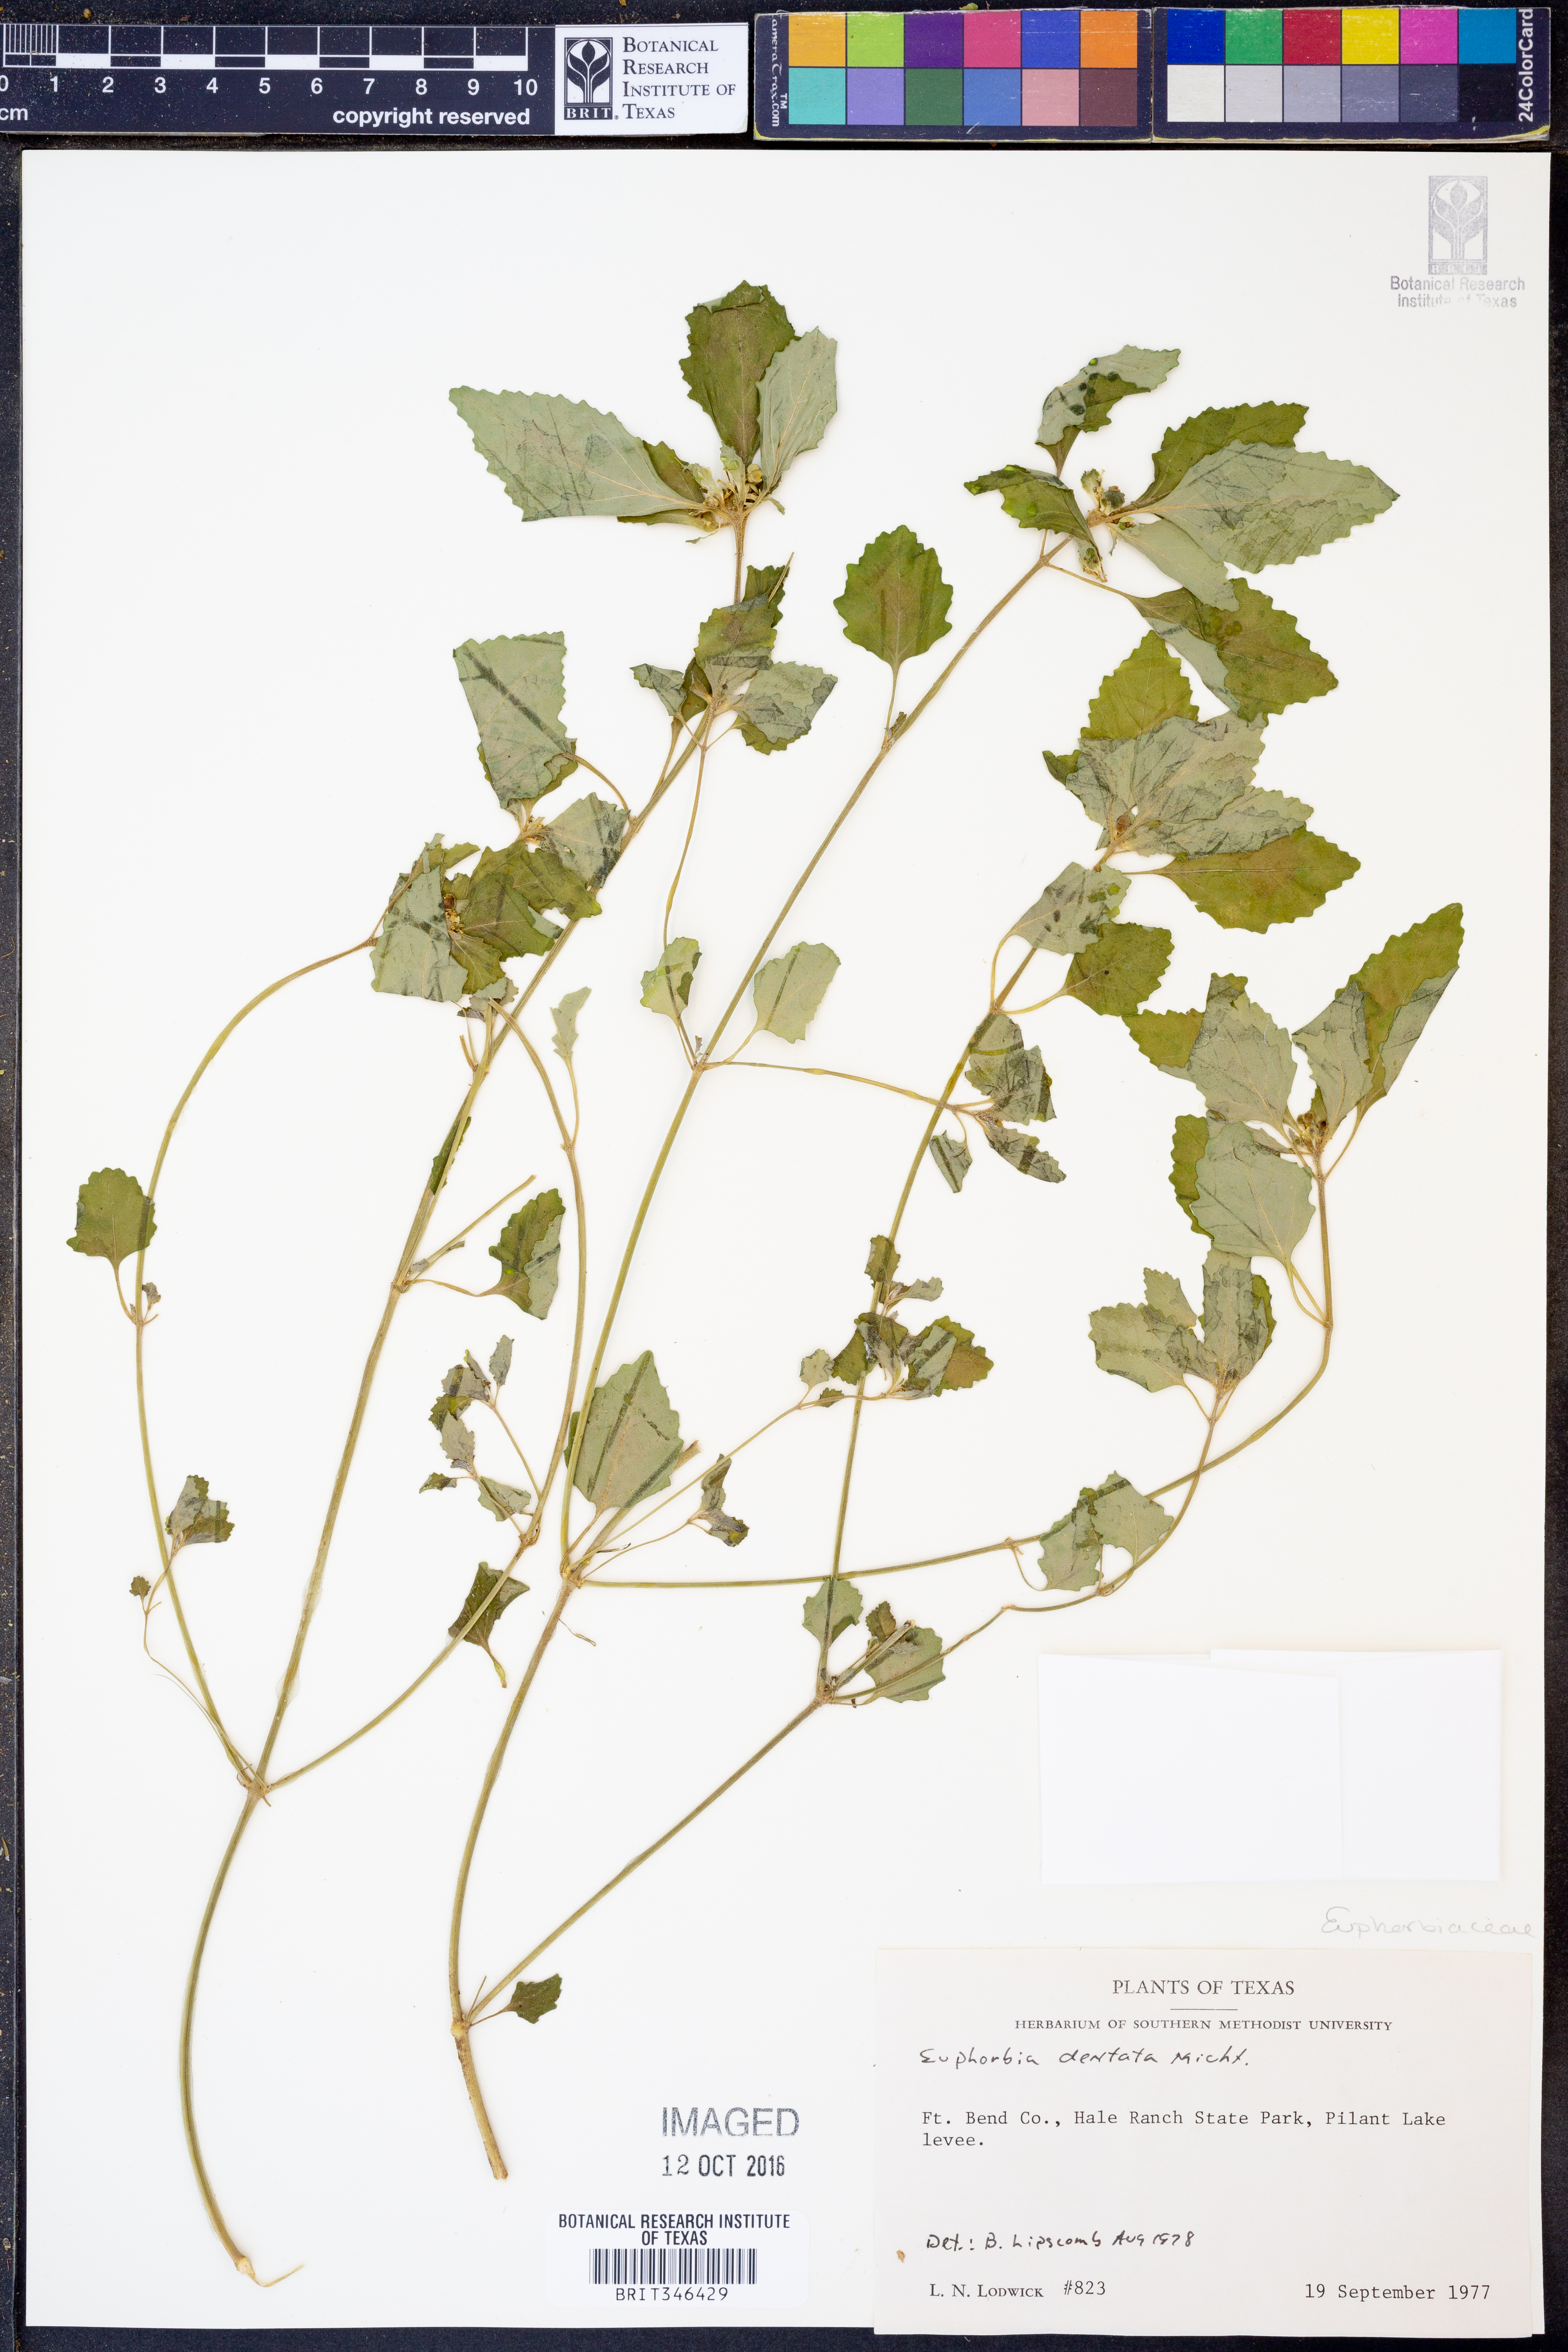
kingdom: Plantae
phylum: Tracheophyta
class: Magnoliopsida
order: Malpighiales
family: Euphorbiaceae
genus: Euphorbia
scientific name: Euphorbia dentata
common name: Dentate spurge
